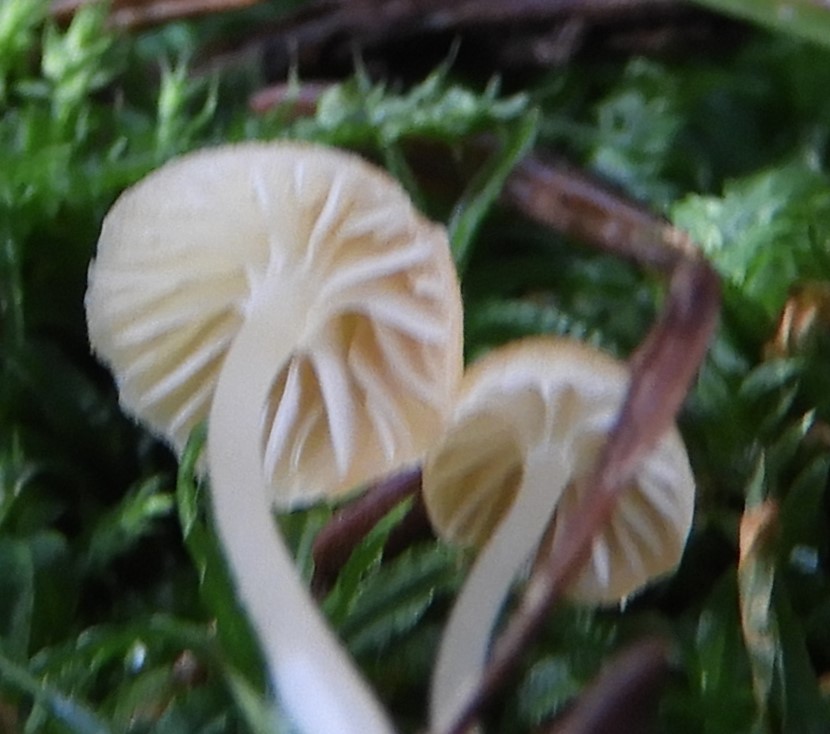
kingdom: Fungi
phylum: Basidiomycota
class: Agaricomycetes
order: Agaricales
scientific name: Agaricales
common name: champignonordenen
